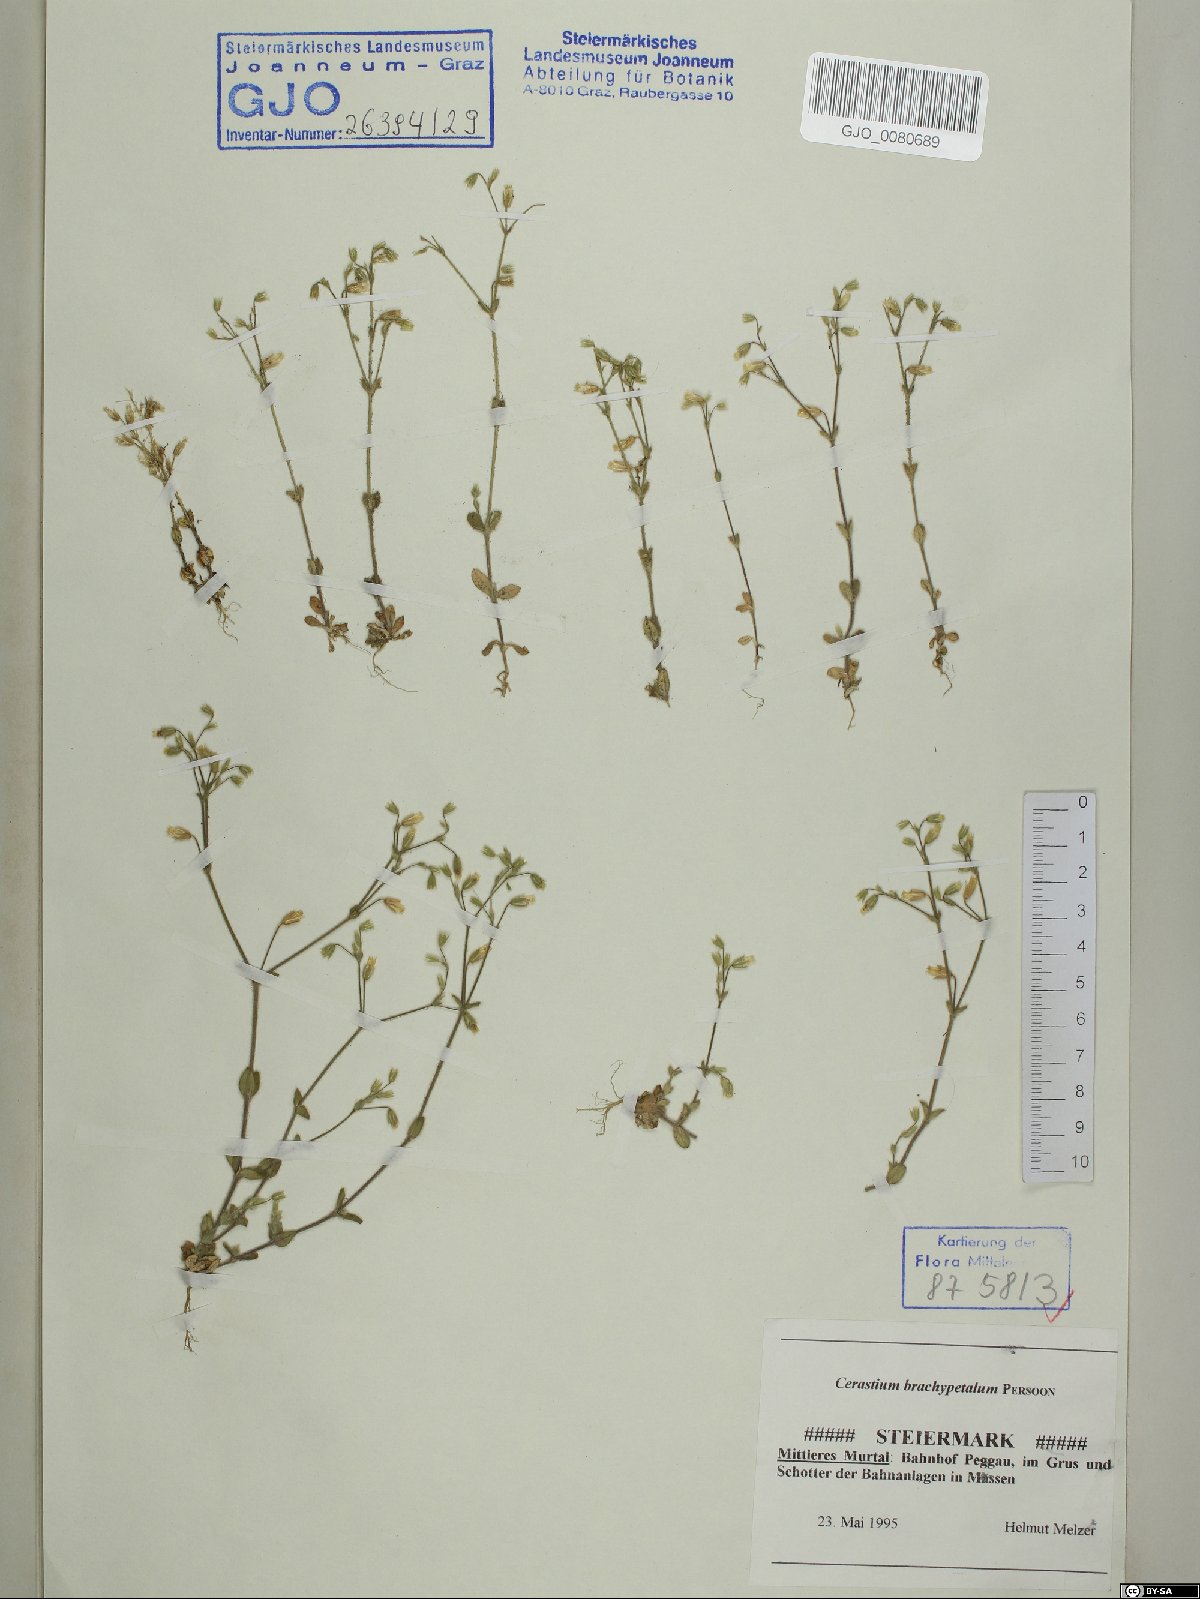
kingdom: Plantae
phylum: Tracheophyta
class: Magnoliopsida
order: Caryophyllales
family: Caryophyllaceae
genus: Cerastium
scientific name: Cerastium brachypetalum
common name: Grey mouse-ear
